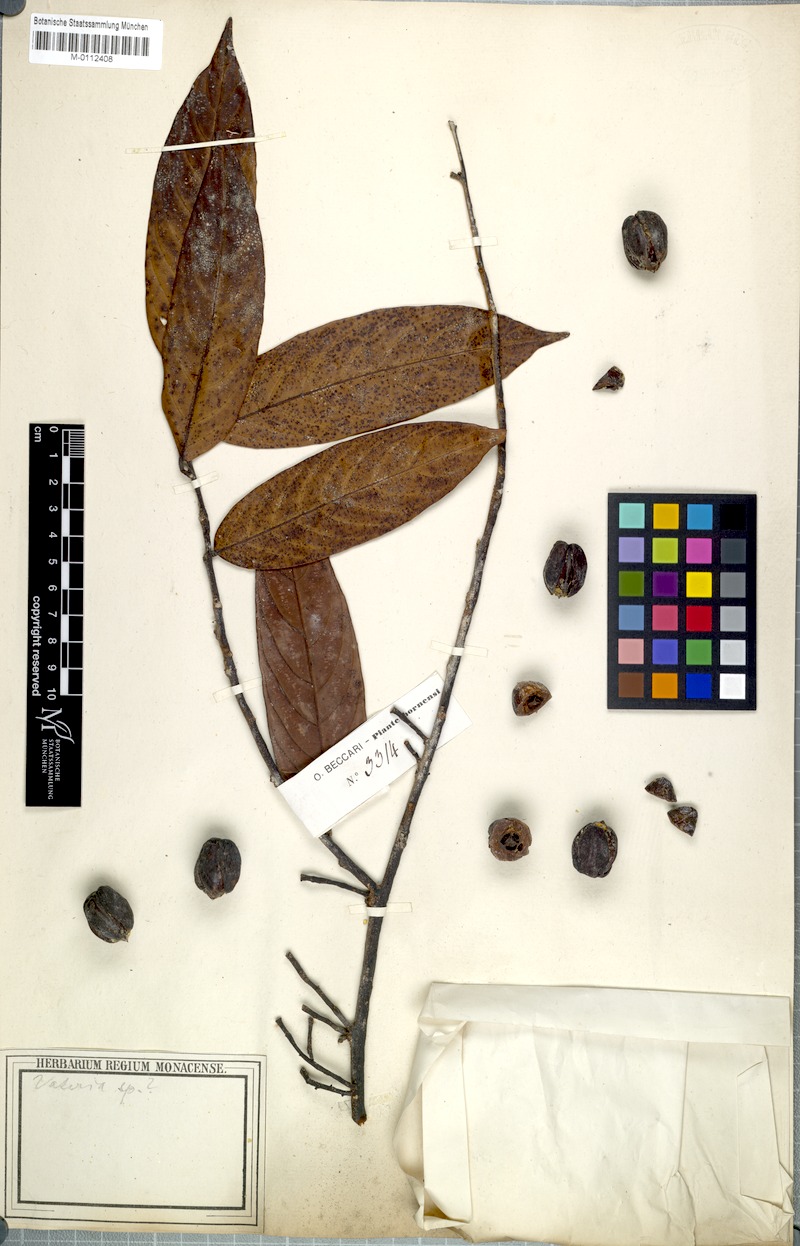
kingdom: Plantae
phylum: Tracheophyta
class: Magnoliopsida
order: Malvales
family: Dipterocarpaceae
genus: Hopea
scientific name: Hopea pachycarpa
